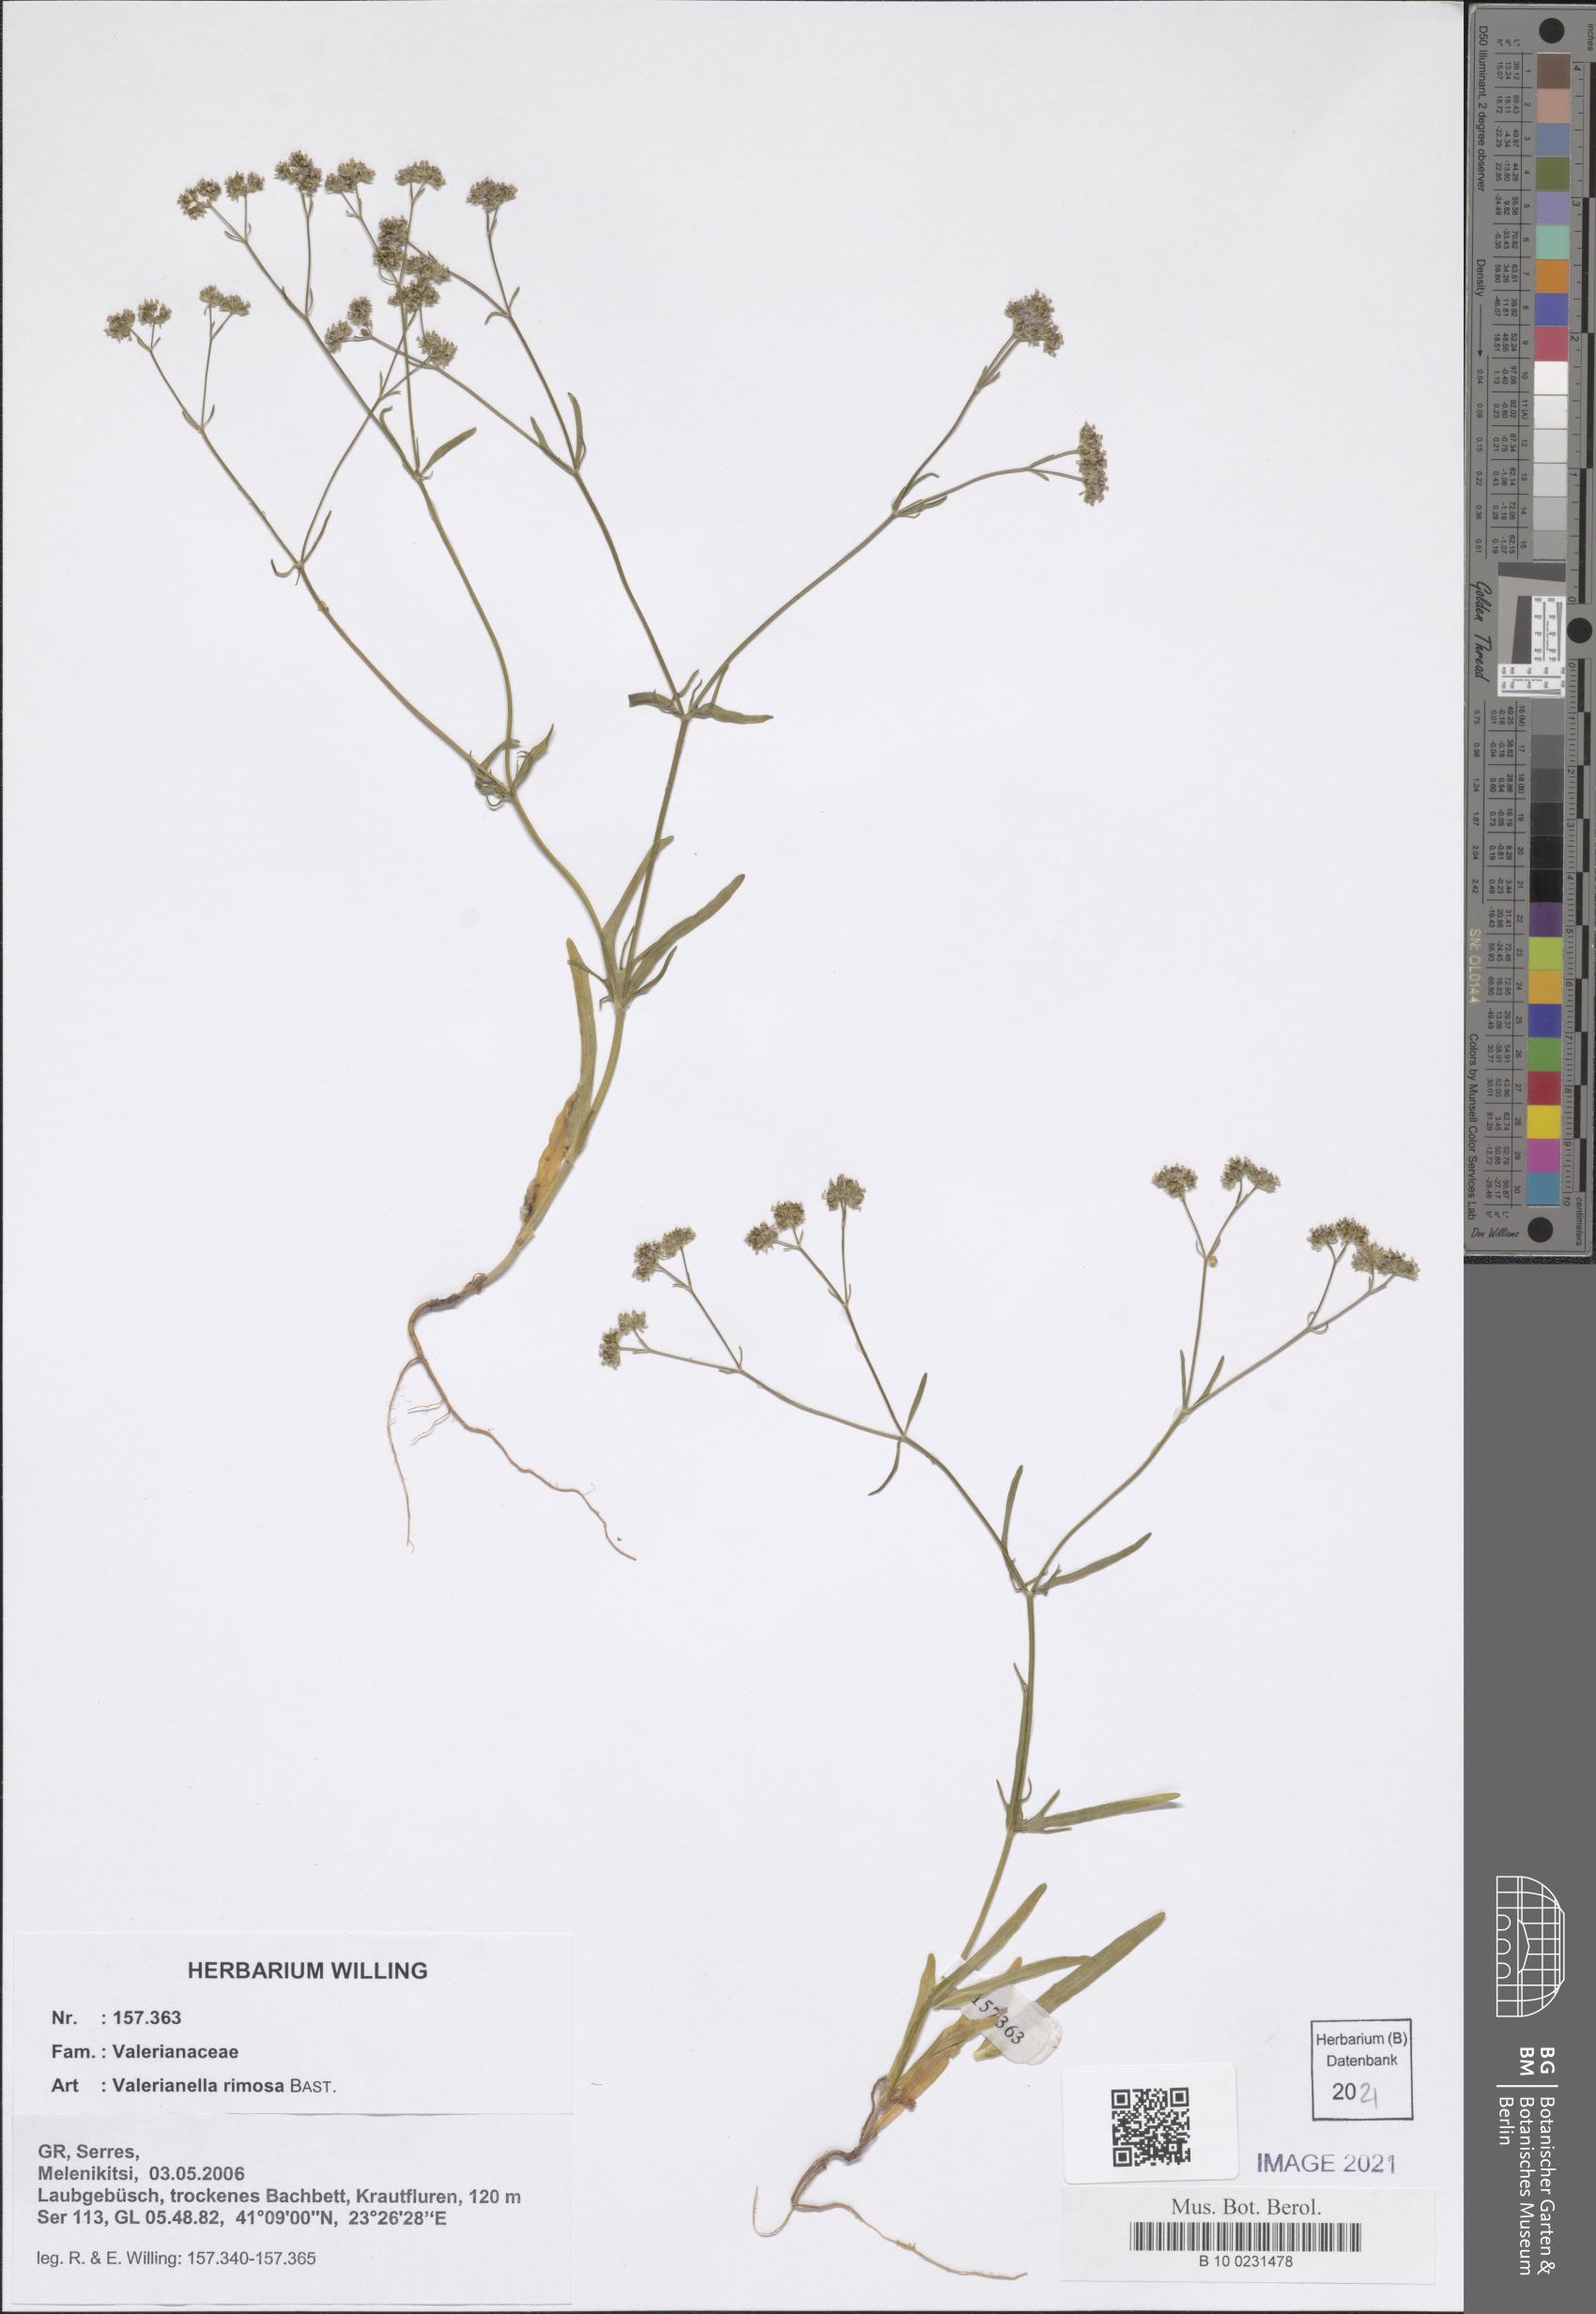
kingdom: Plantae
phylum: Tracheophyta
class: Magnoliopsida
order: Dipsacales
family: Caprifoliaceae
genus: Valerianella
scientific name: Valerianella rimosa
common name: Broad-fruited cornsalad
